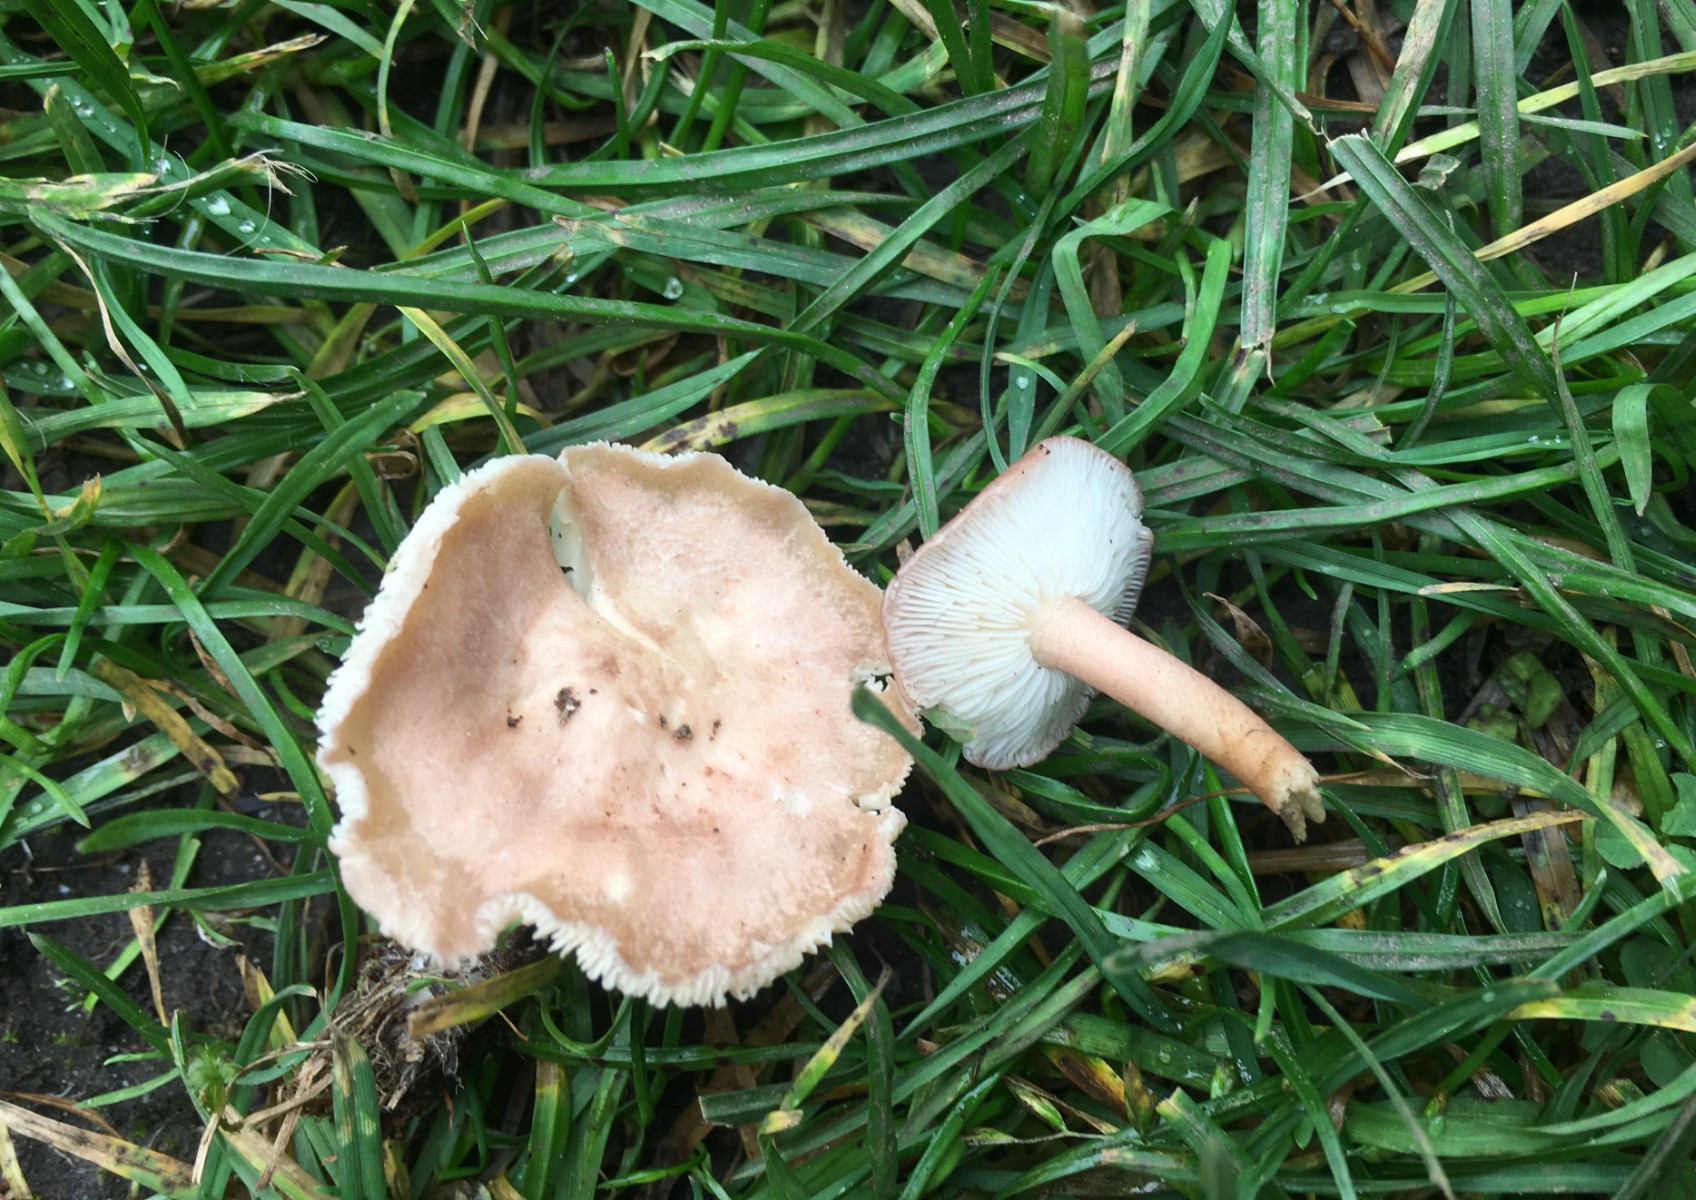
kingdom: Fungi
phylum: Basidiomycota
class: Agaricomycetes
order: Agaricales
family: Lyophyllaceae
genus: Calocybe
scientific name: Calocybe carnea
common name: rosa fagerhat
